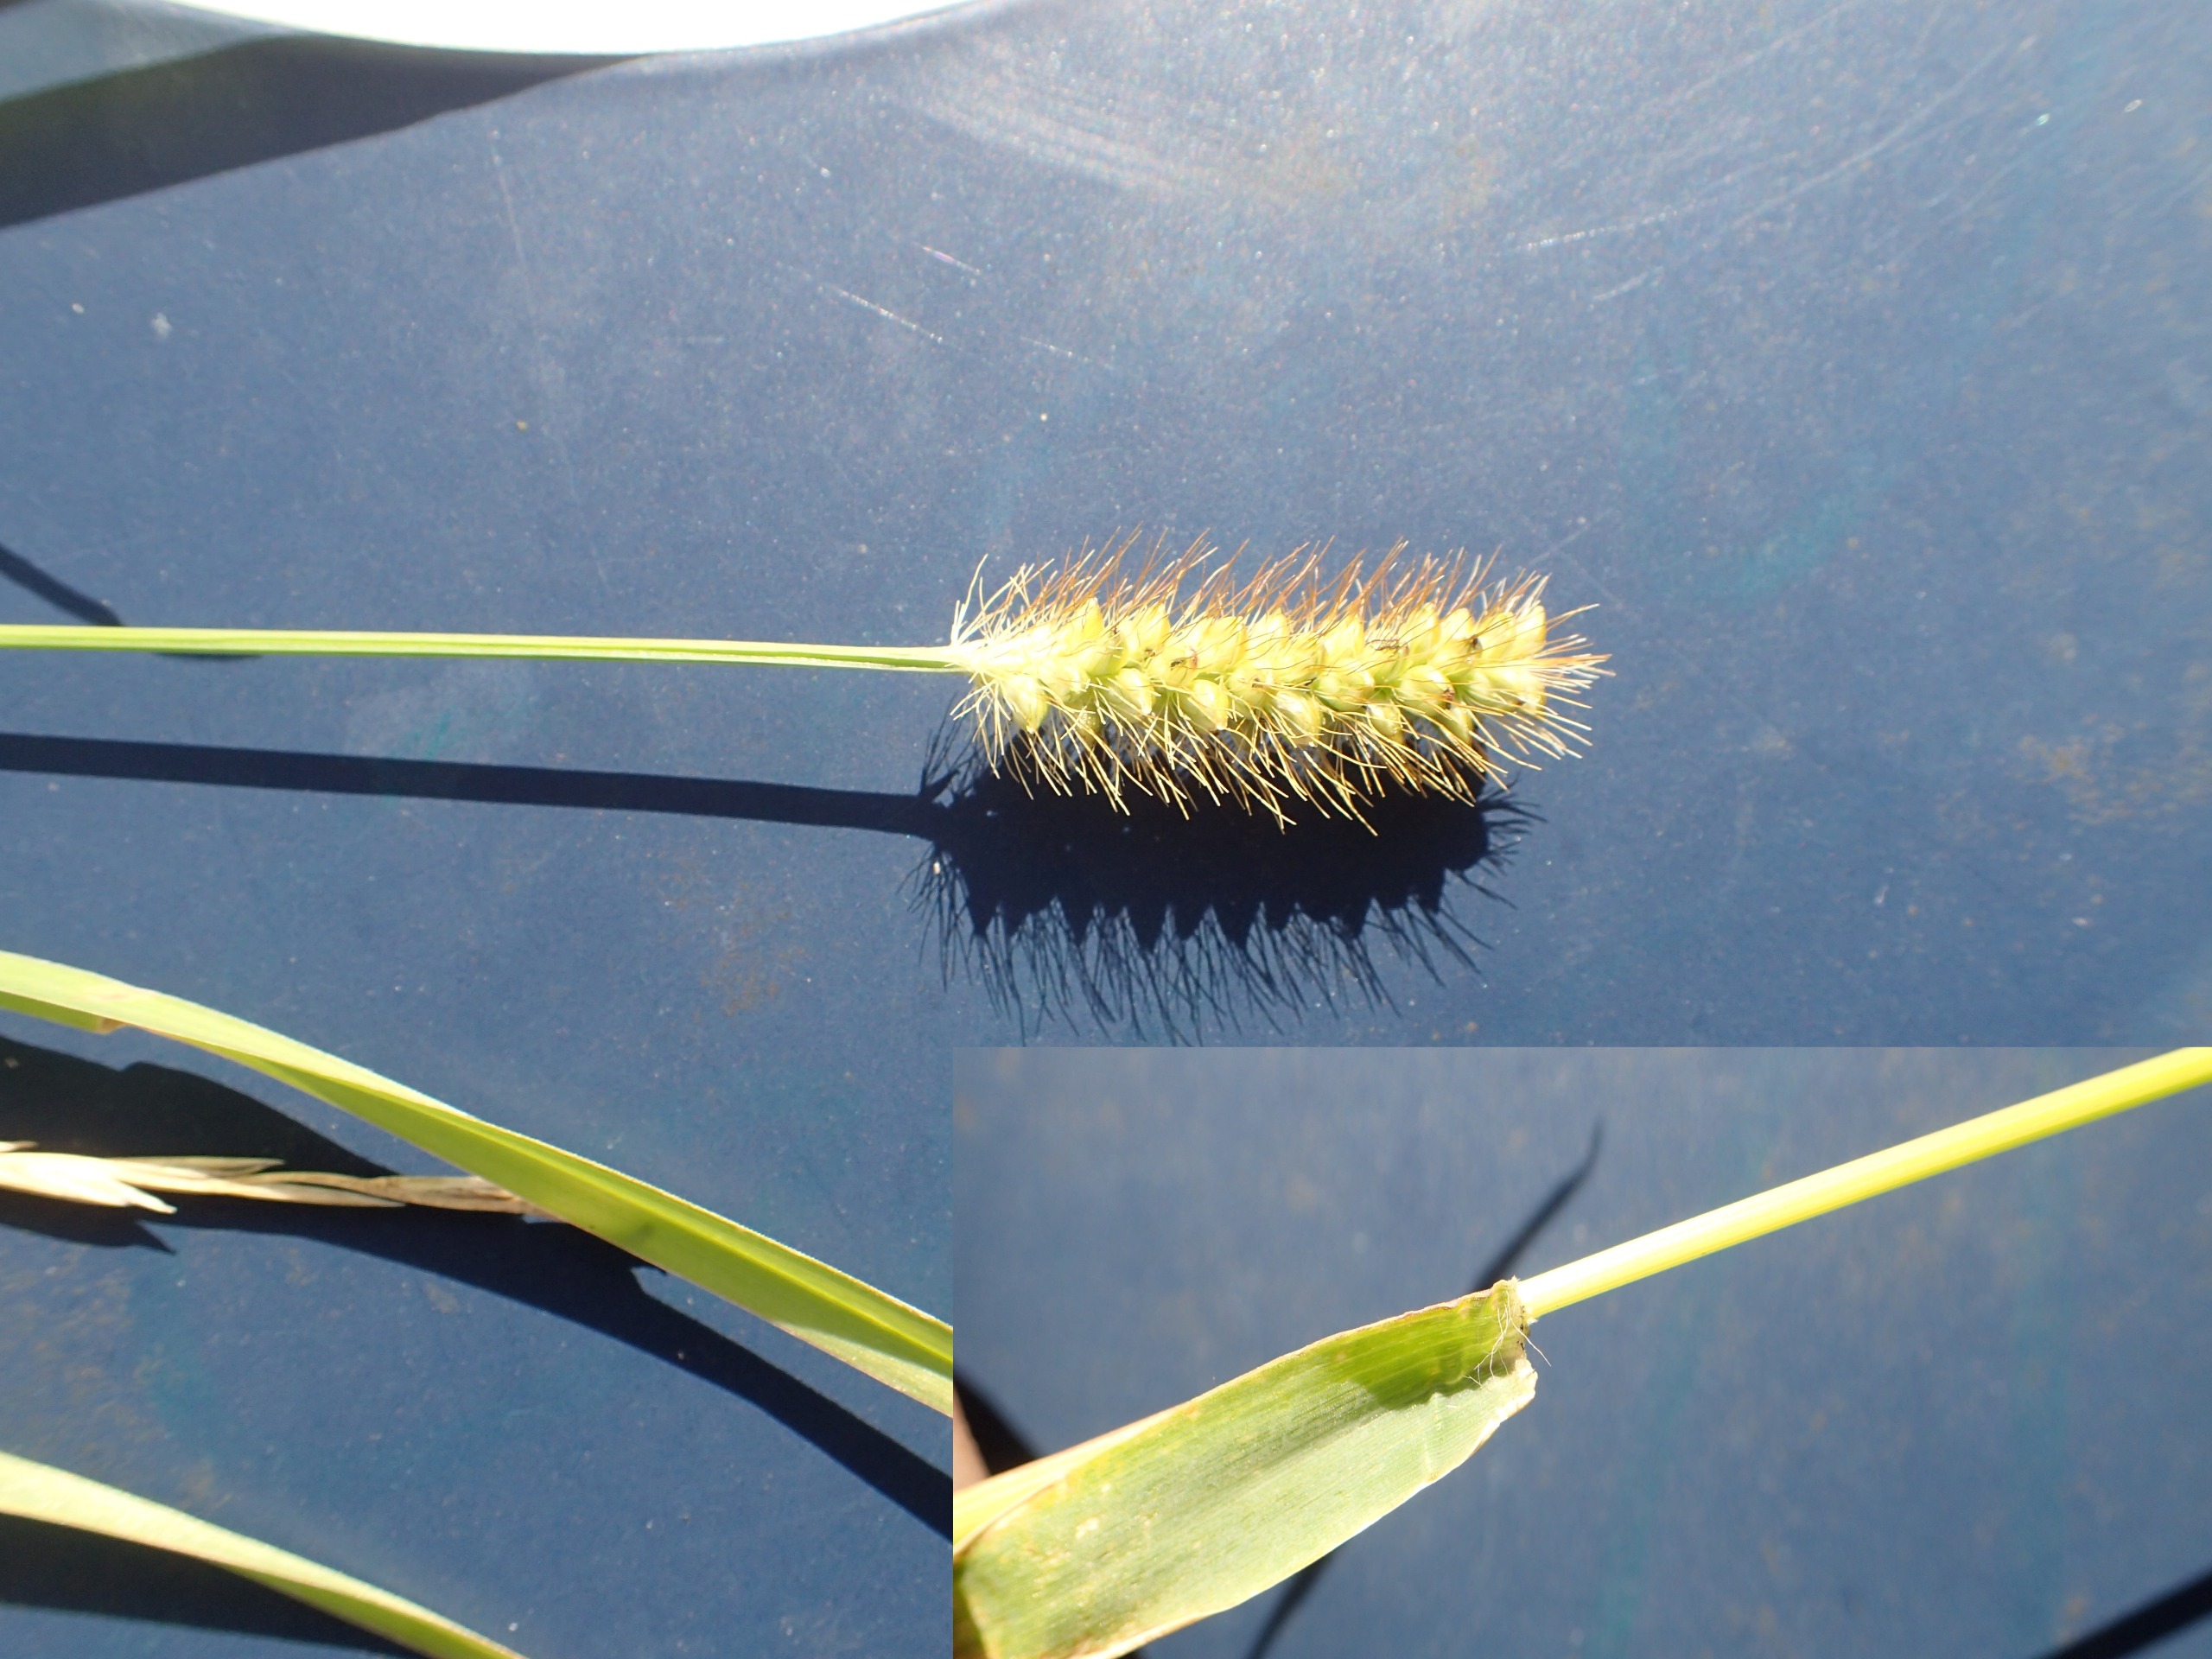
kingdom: Plantae
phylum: Tracheophyta
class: Liliopsida
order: Poales
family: Poaceae
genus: Setaria
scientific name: Setaria pumila
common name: Blågrøn skærmaks
